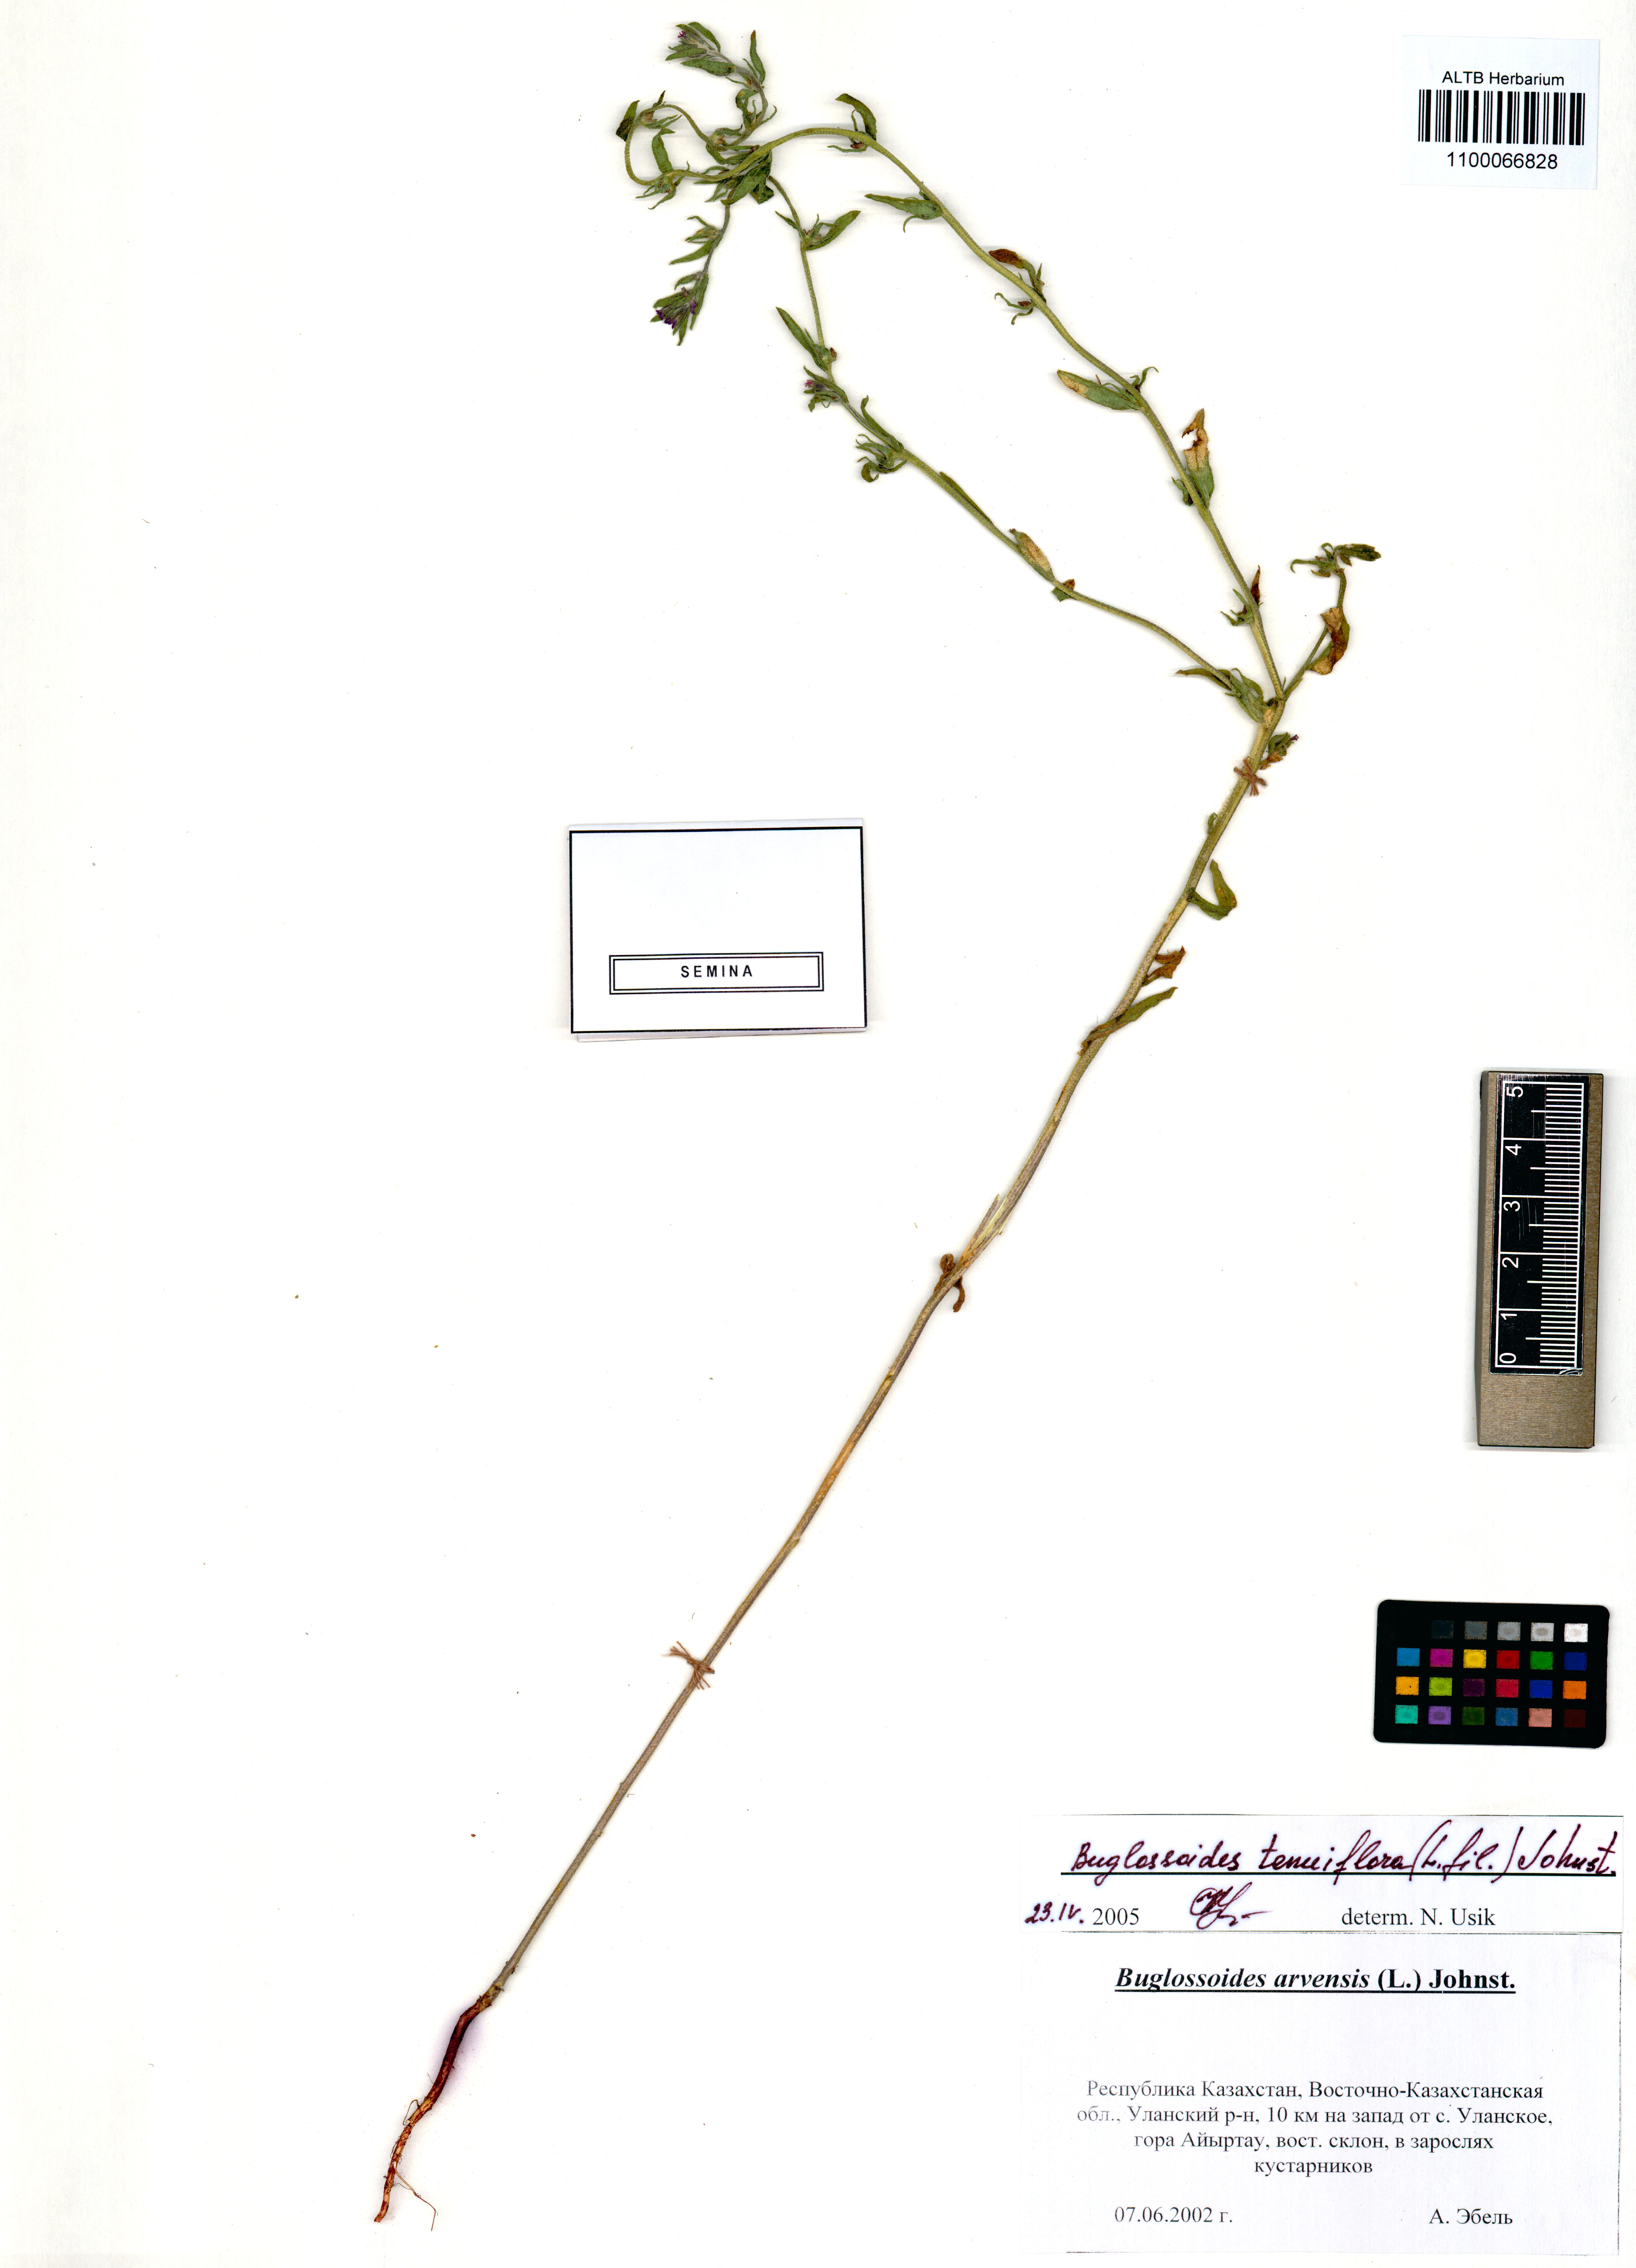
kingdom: Plantae
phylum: Tracheophyta
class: Magnoliopsida
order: Boraginales
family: Boraginaceae
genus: Buglossoides
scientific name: Buglossoides tenuiflora
